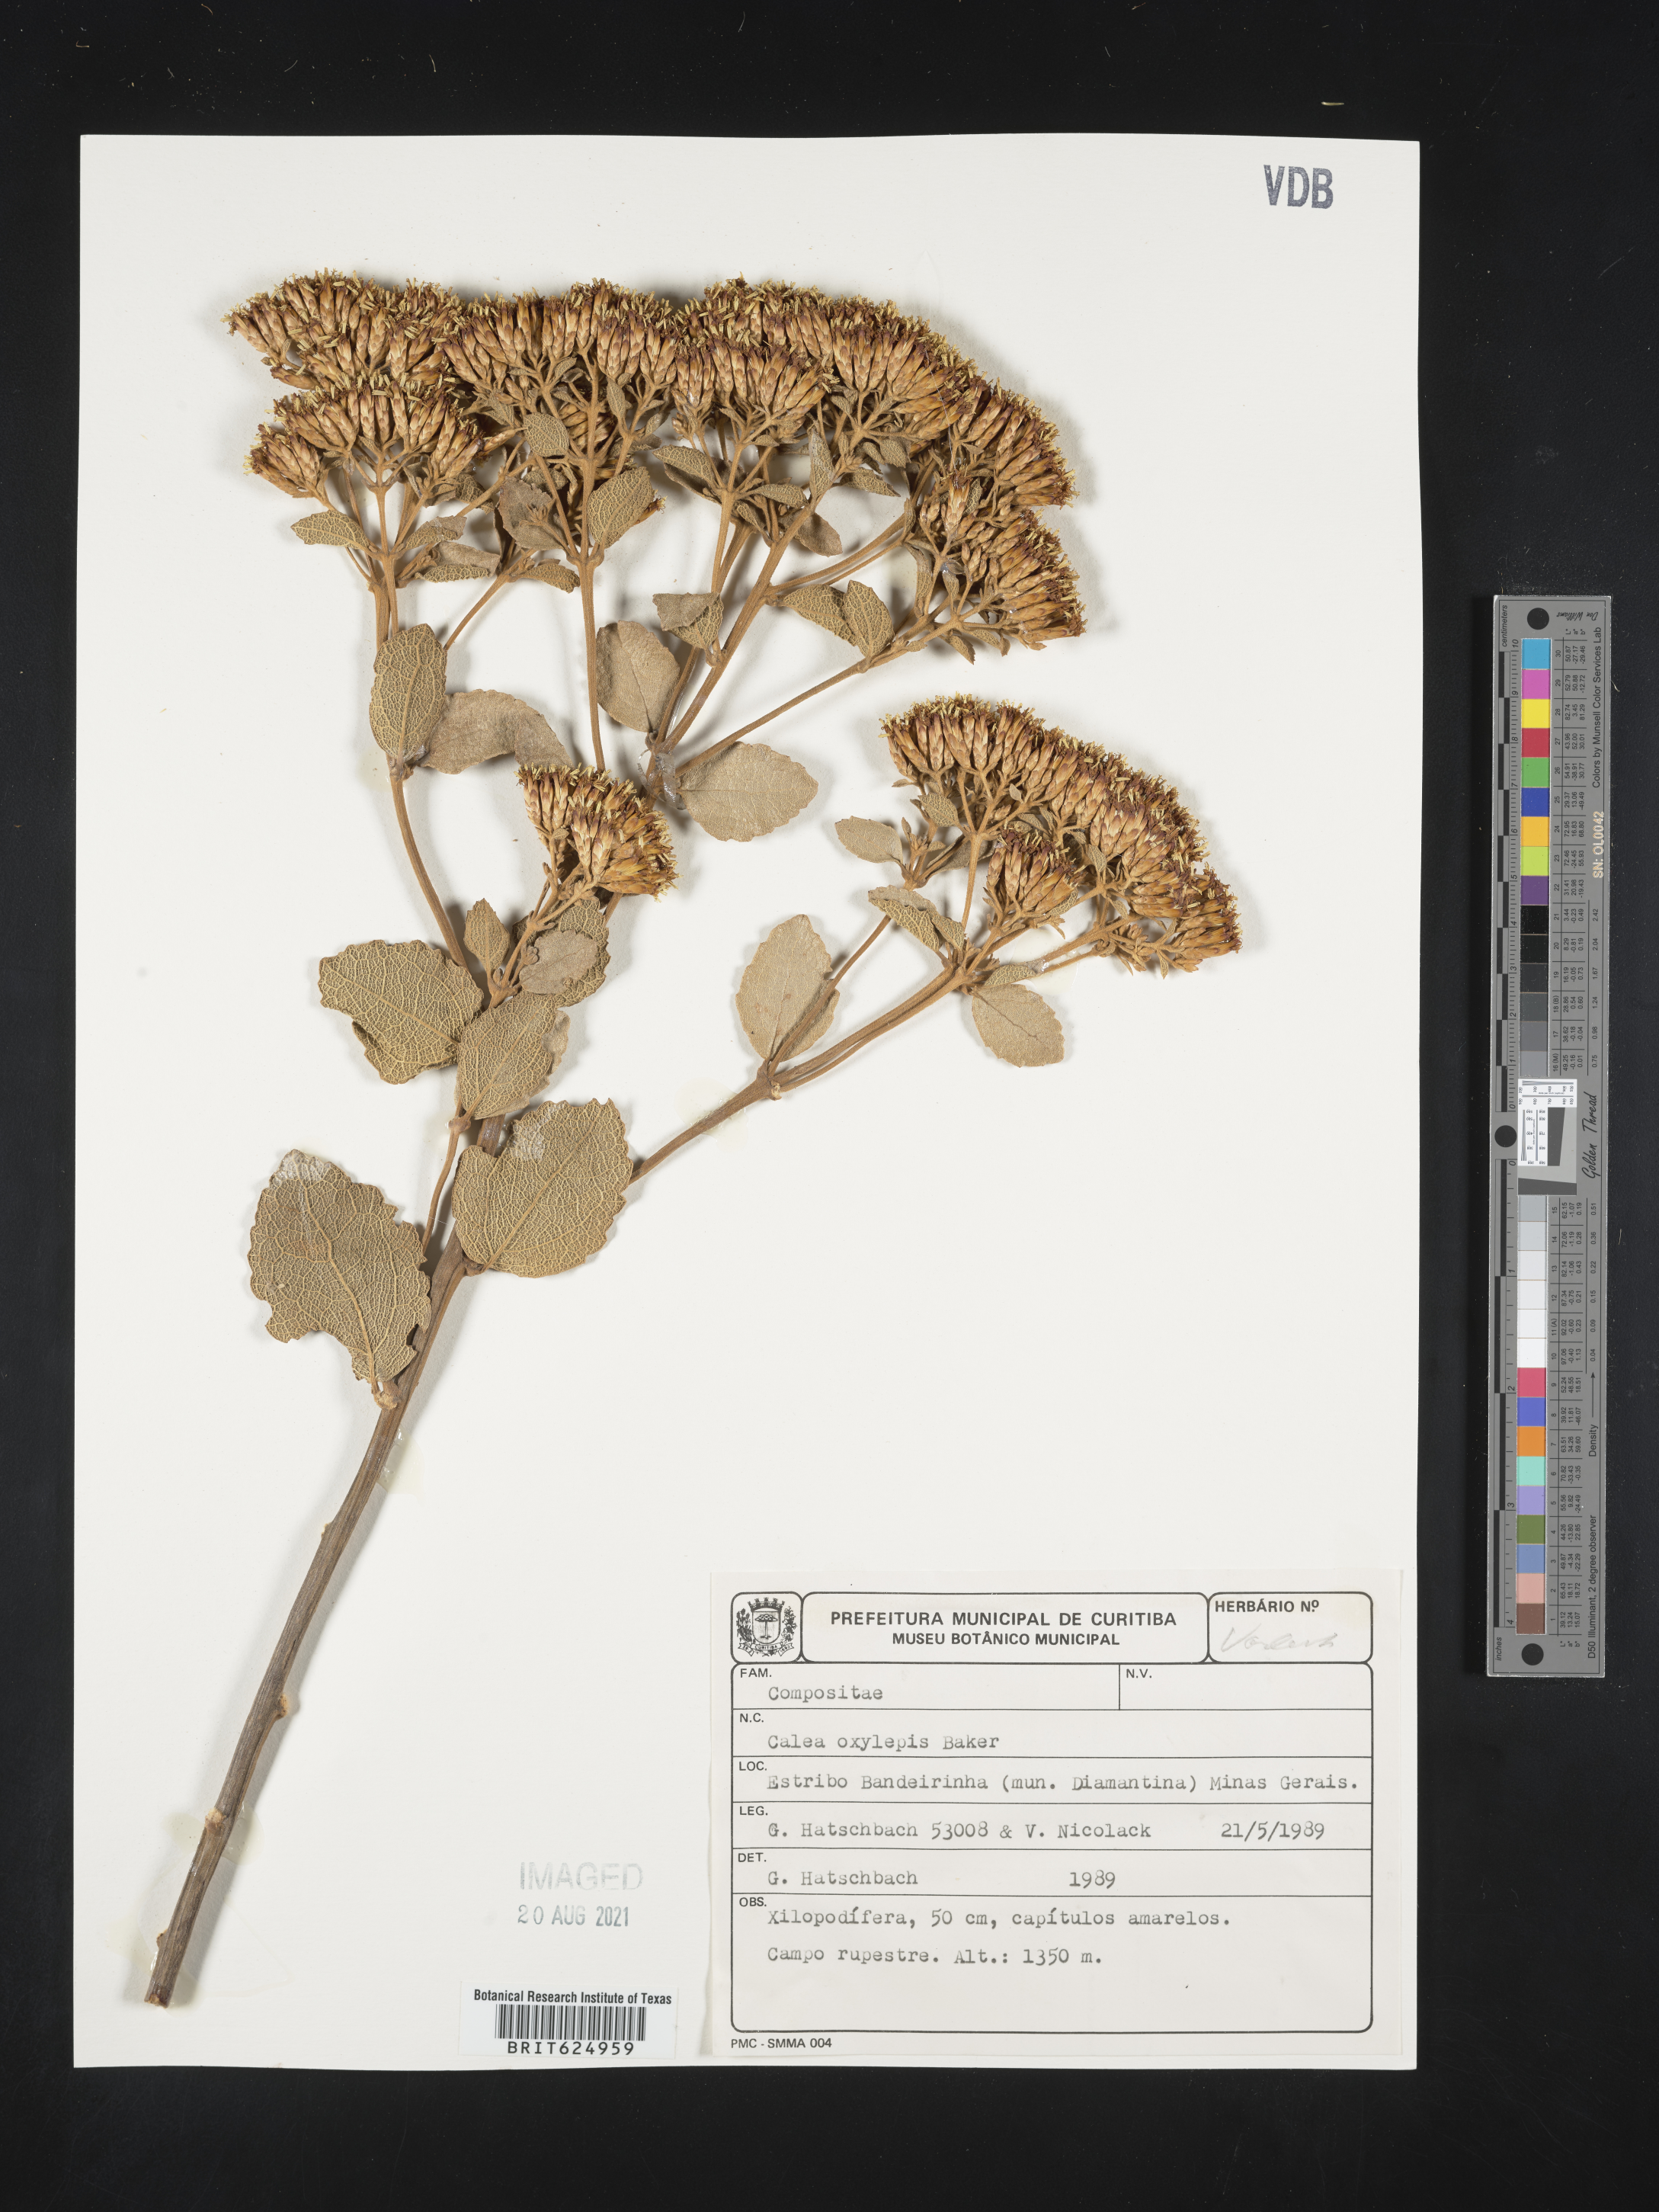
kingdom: Plantae
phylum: Tracheophyta
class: Magnoliopsida
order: Asterales
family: Asteraceae
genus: Calea
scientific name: Calea oxylepis
